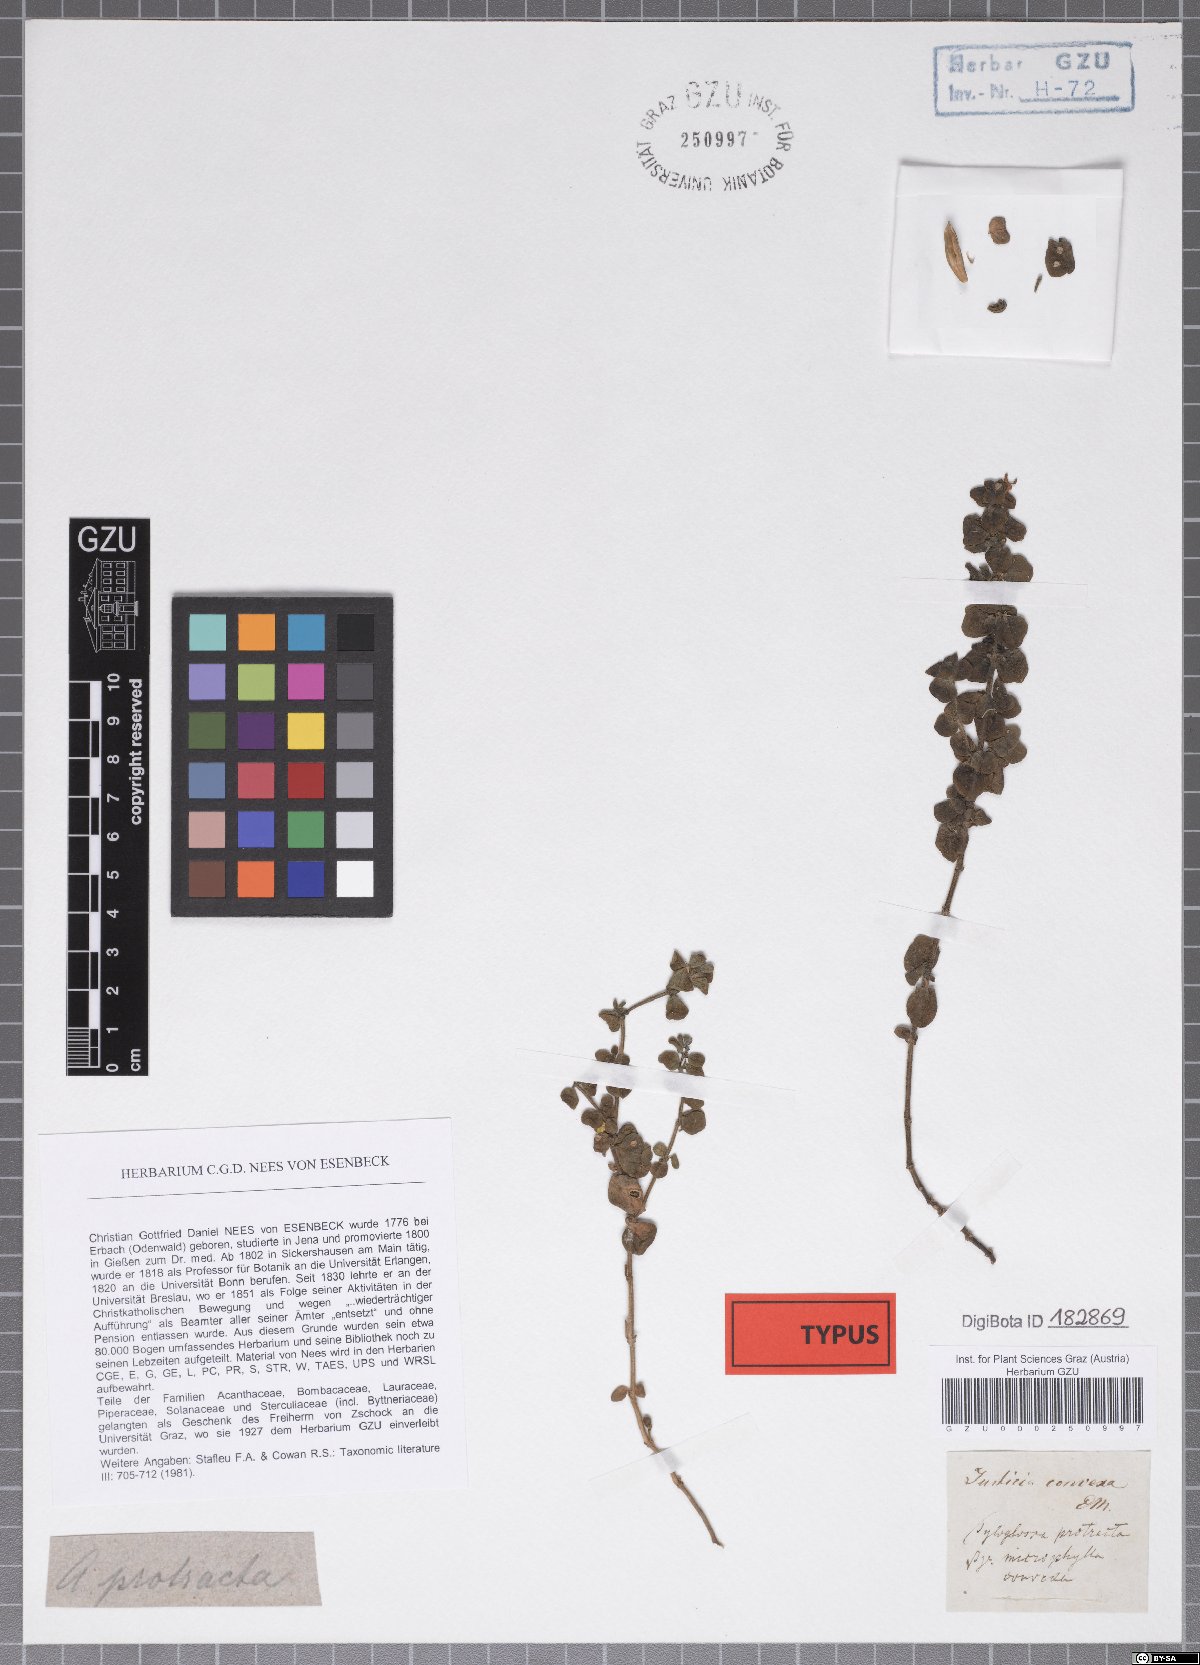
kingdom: Plantae
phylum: Tracheophyta
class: Magnoliopsida
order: Lamiales
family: Acanthaceae
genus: Justicia
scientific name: Justicia protracta
